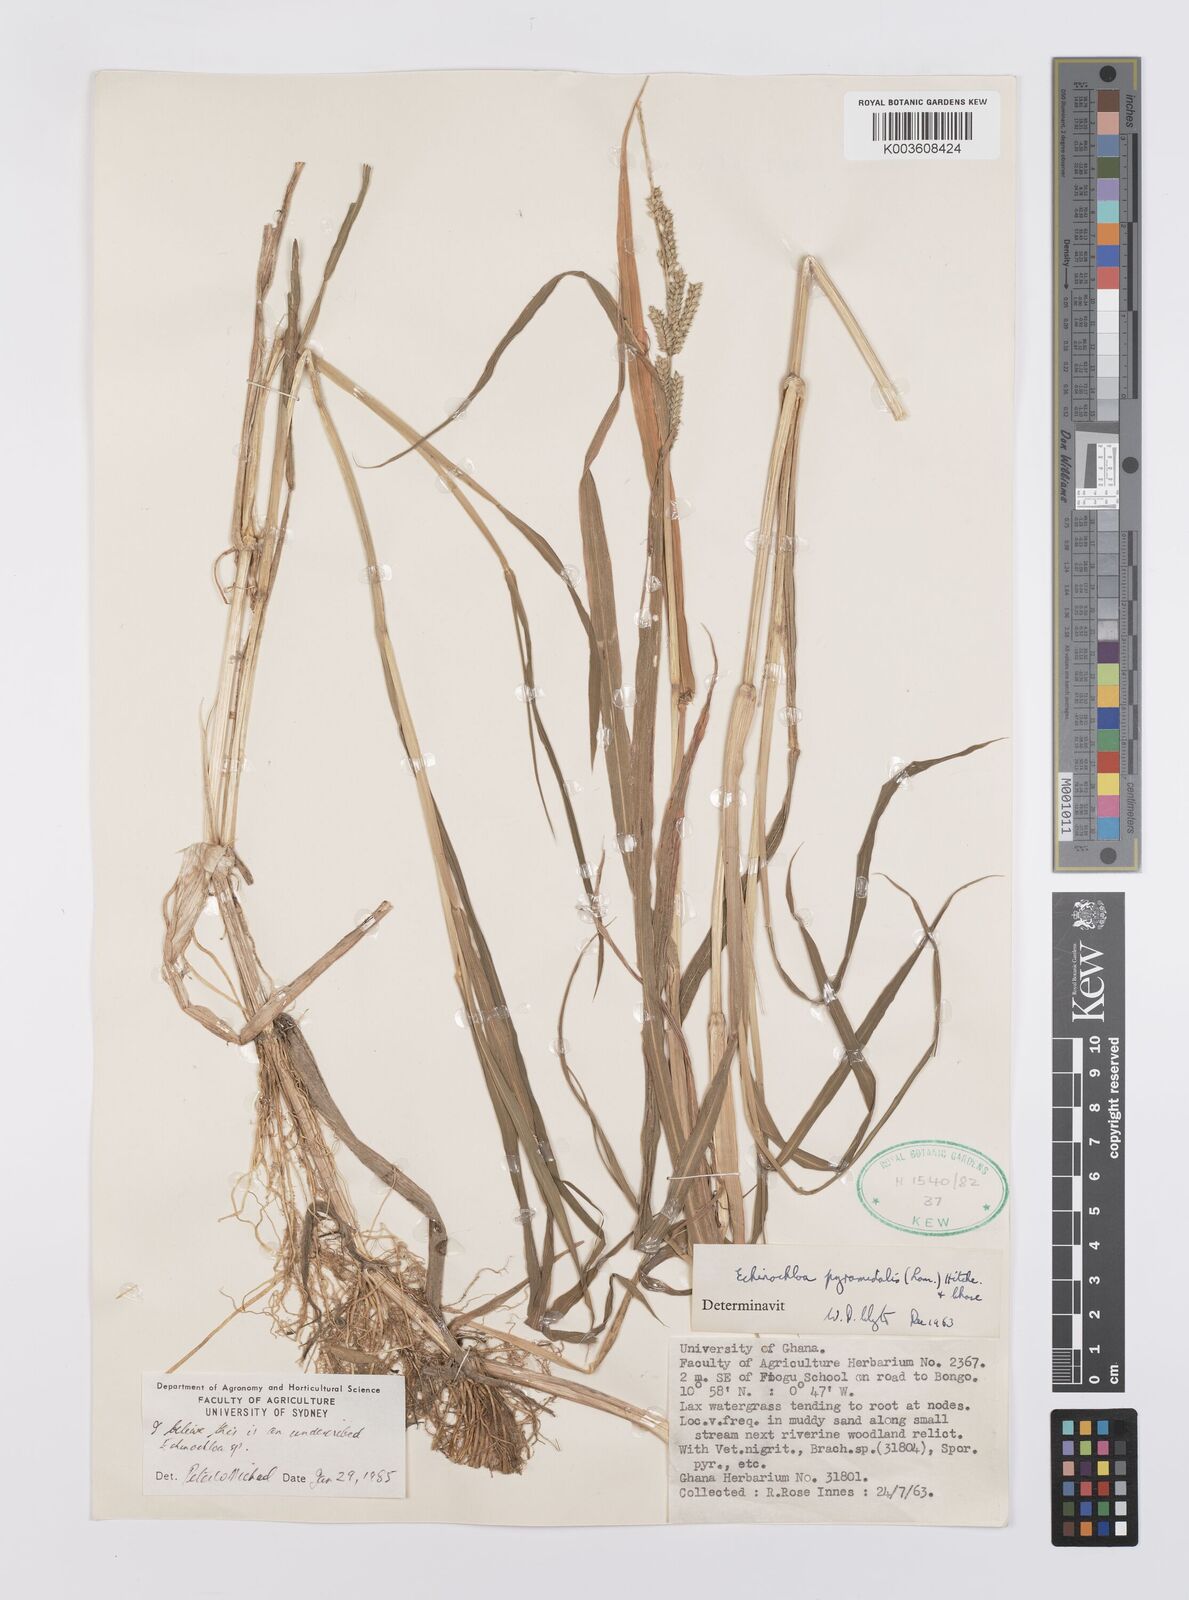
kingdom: Plantae
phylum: Tracheophyta
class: Liliopsida
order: Poales
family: Poaceae
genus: Echinochloa
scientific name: Echinochloa pyramidalis
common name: Antelope grass
